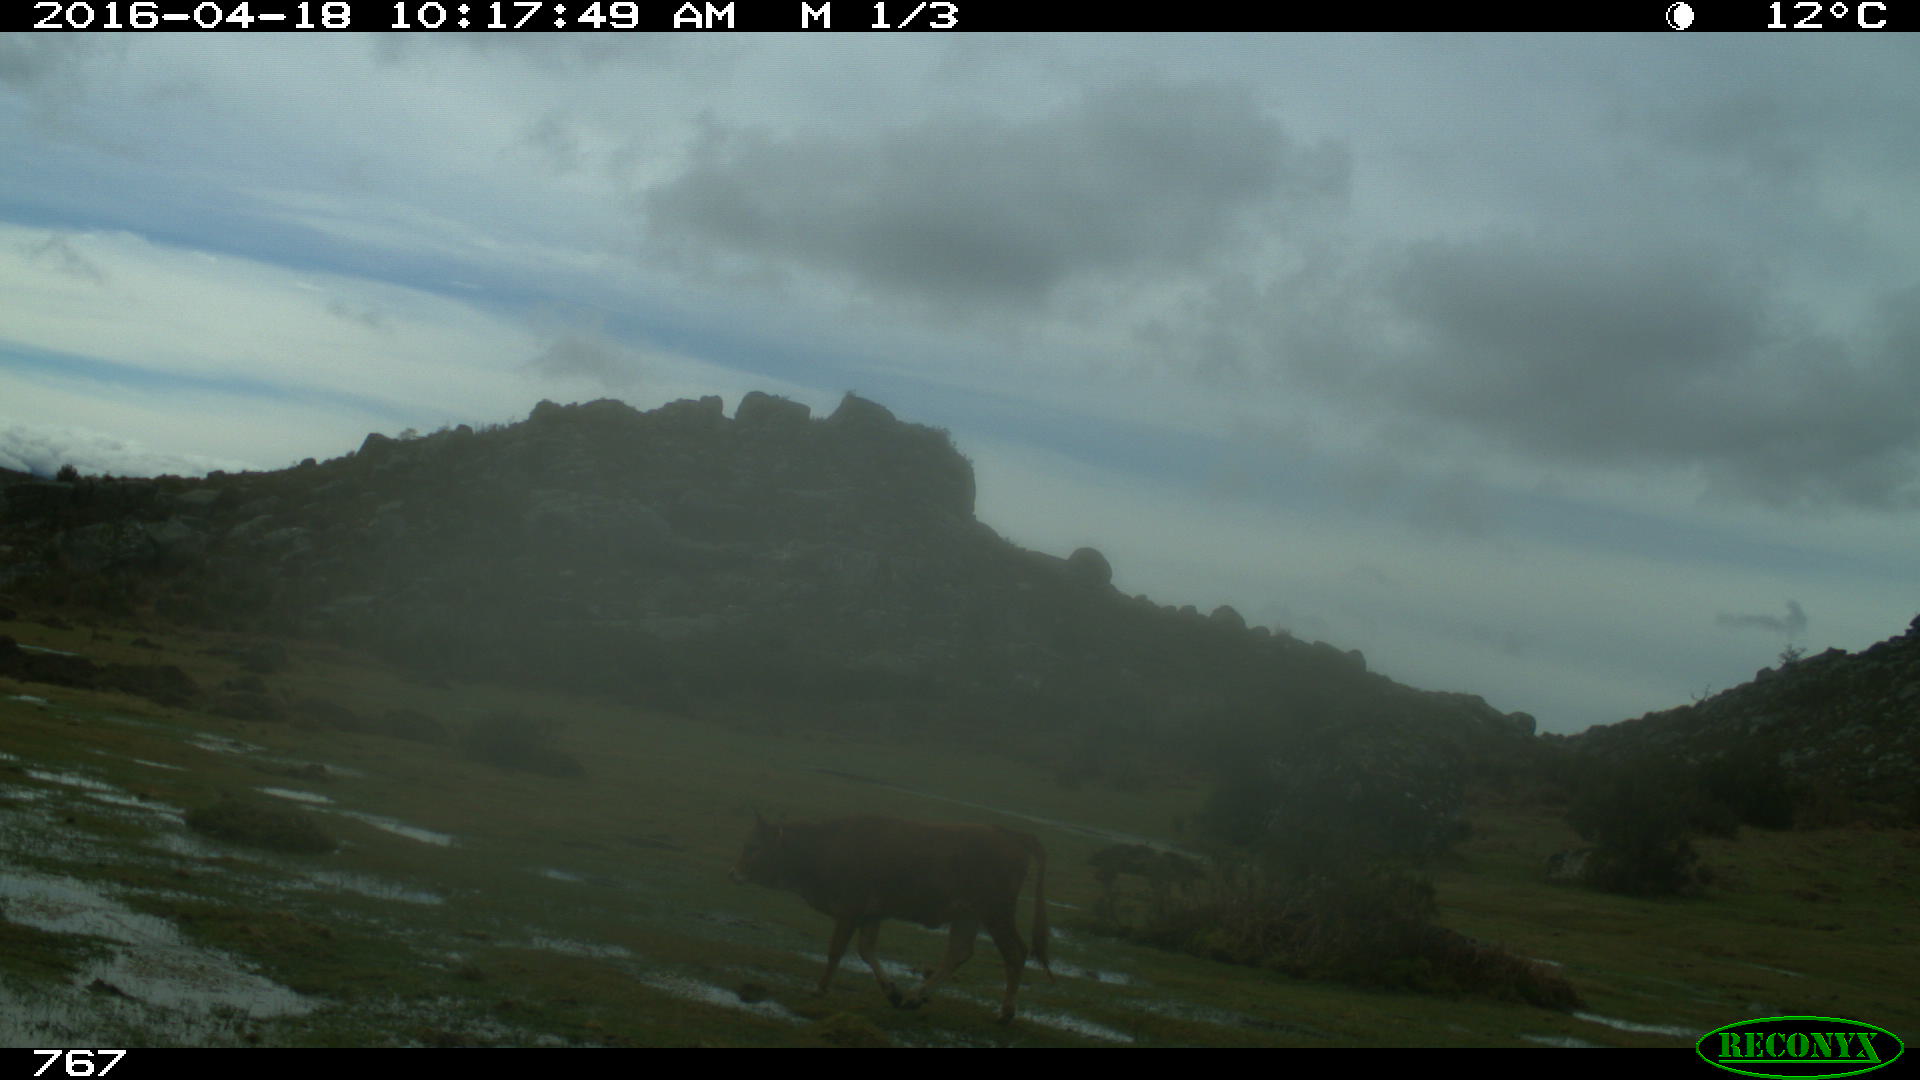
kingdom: Animalia
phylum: Chordata
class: Mammalia
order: Artiodactyla
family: Bovidae
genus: Bos
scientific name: Bos taurus
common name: Domesticated cattle
